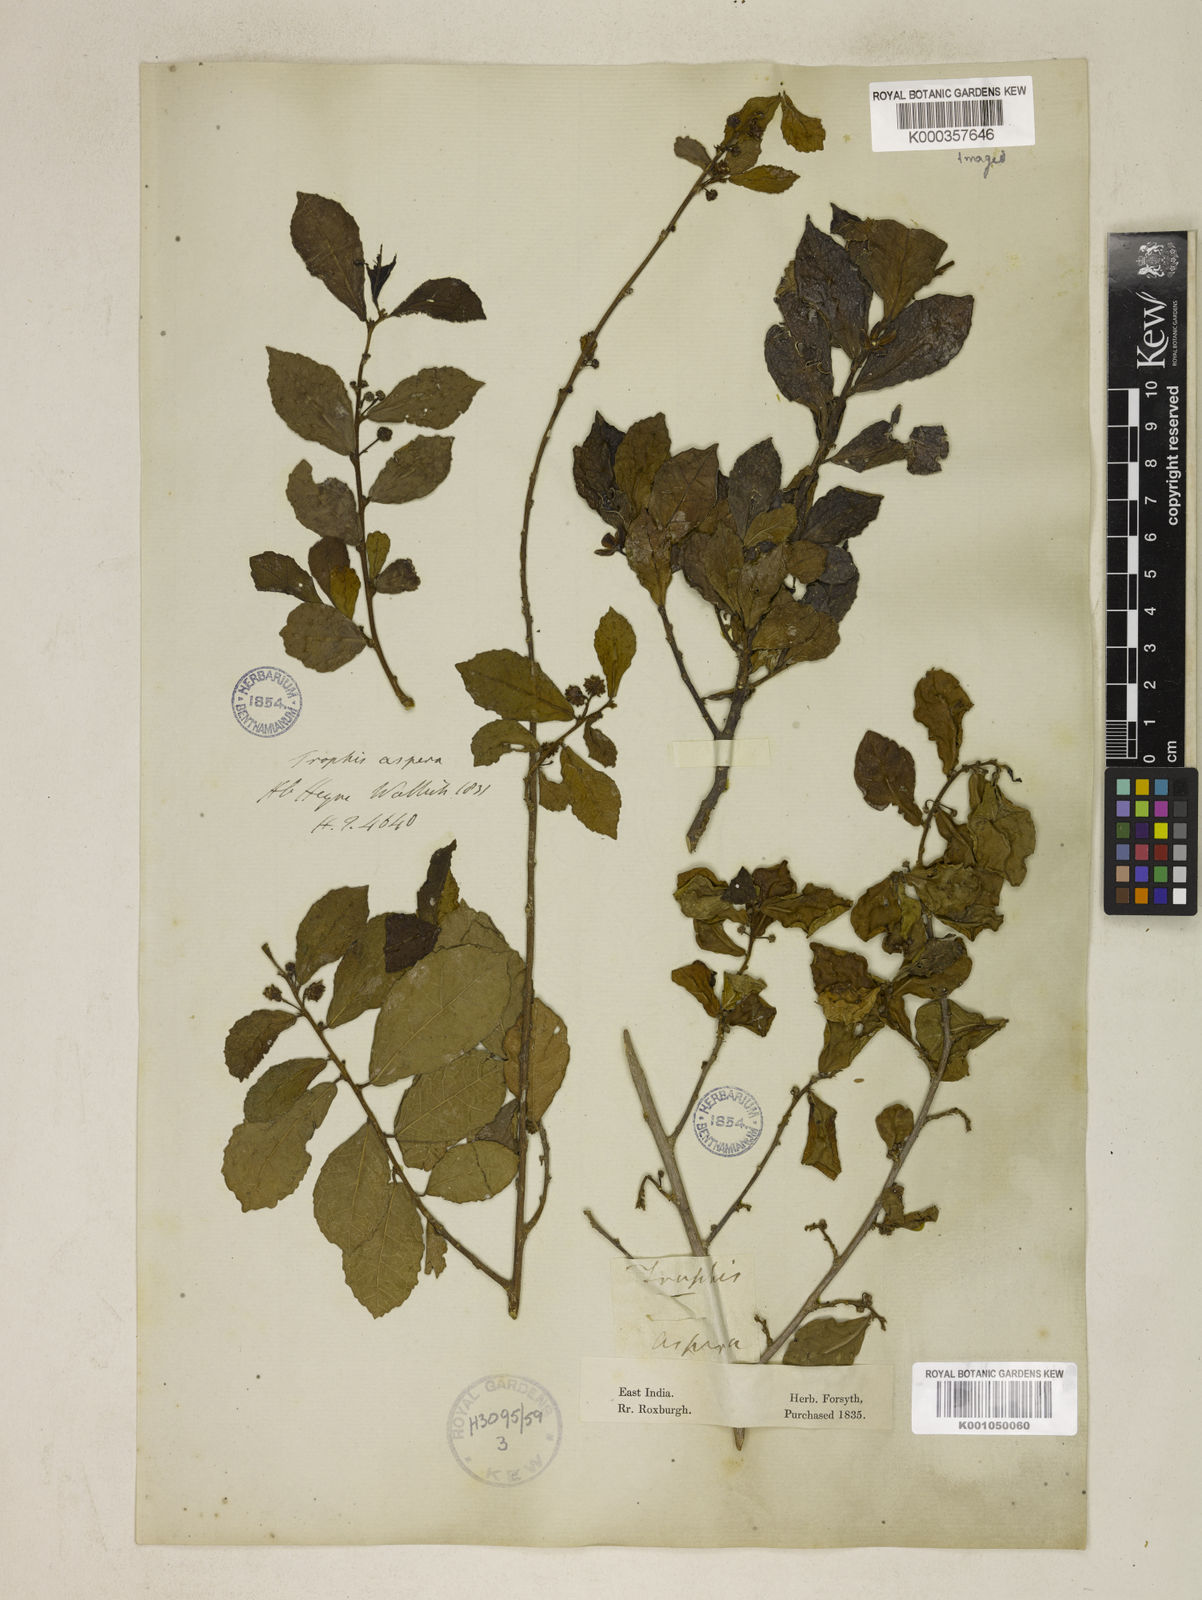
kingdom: Plantae
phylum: Tracheophyta
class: Magnoliopsida
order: Rosales
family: Moraceae
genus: Streblus
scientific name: Streblus asper
